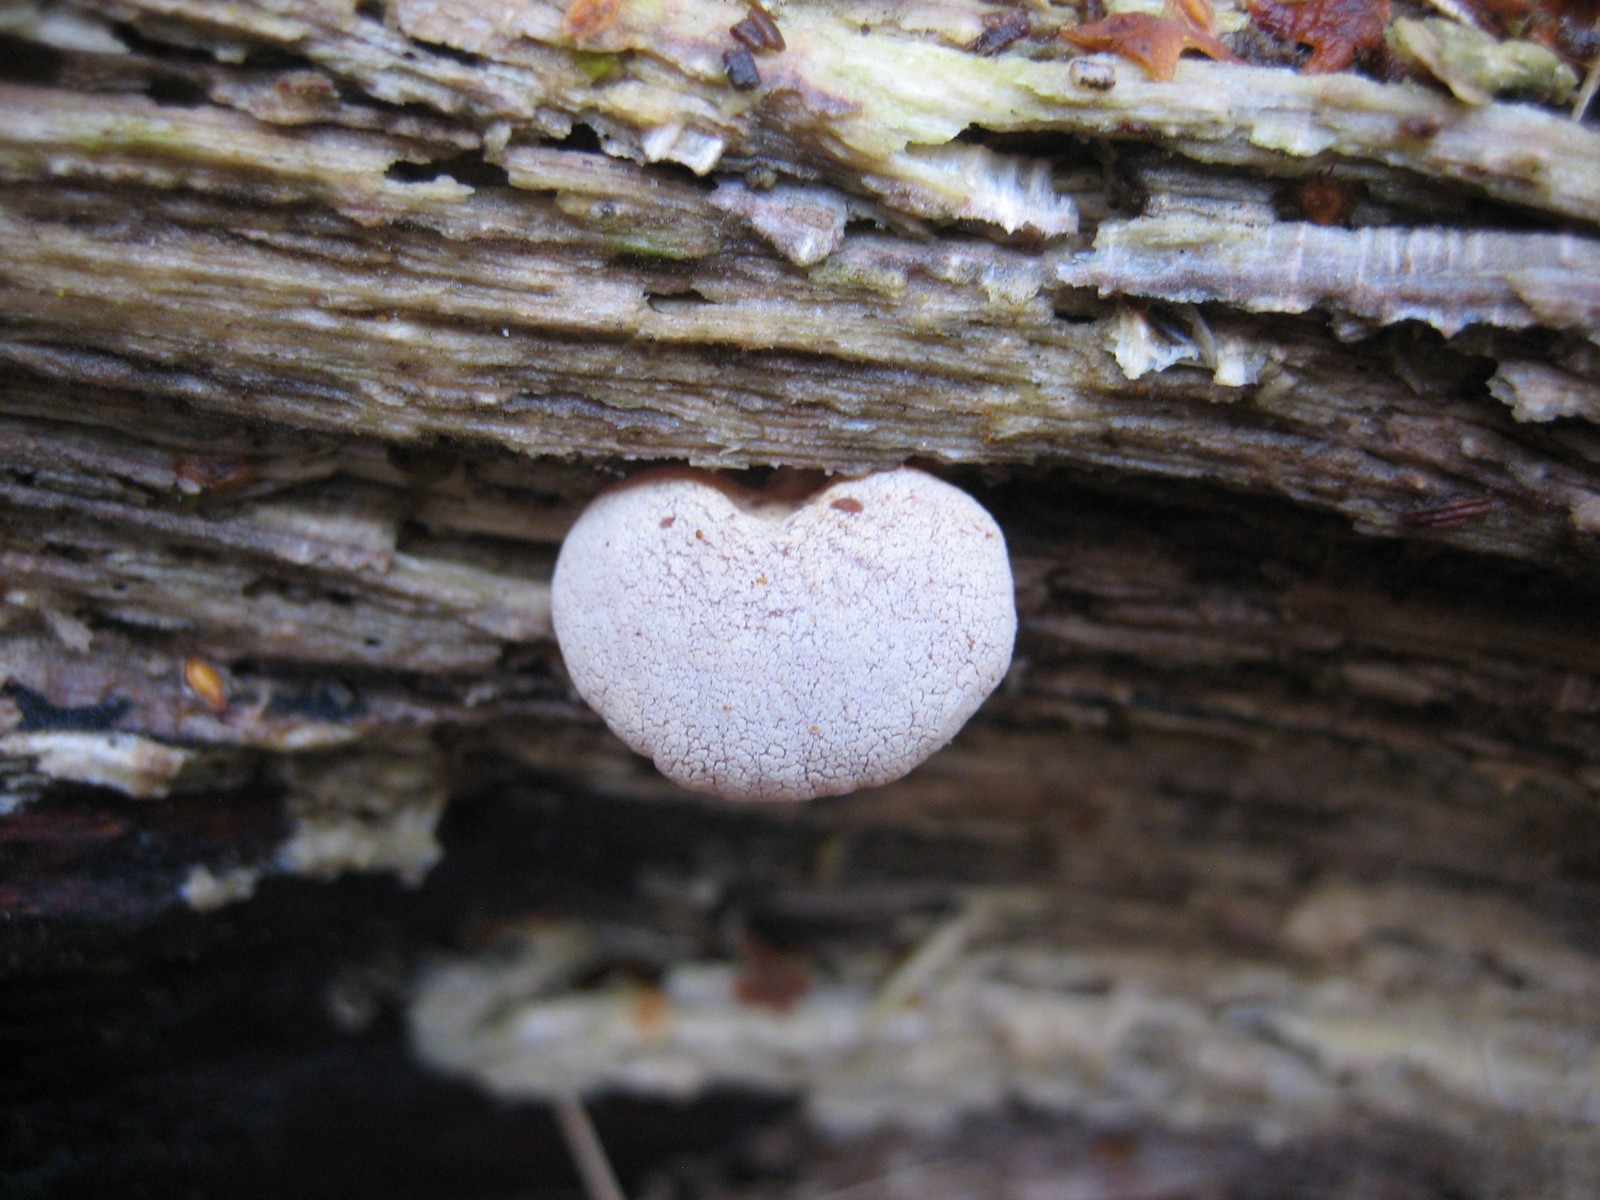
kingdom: Fungi
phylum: Basidiomycota
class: Agaricomycetes
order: Agaricales
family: Mycenaceae
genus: Panellus
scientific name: Panellus stipticus
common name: kliddet epaulethat
